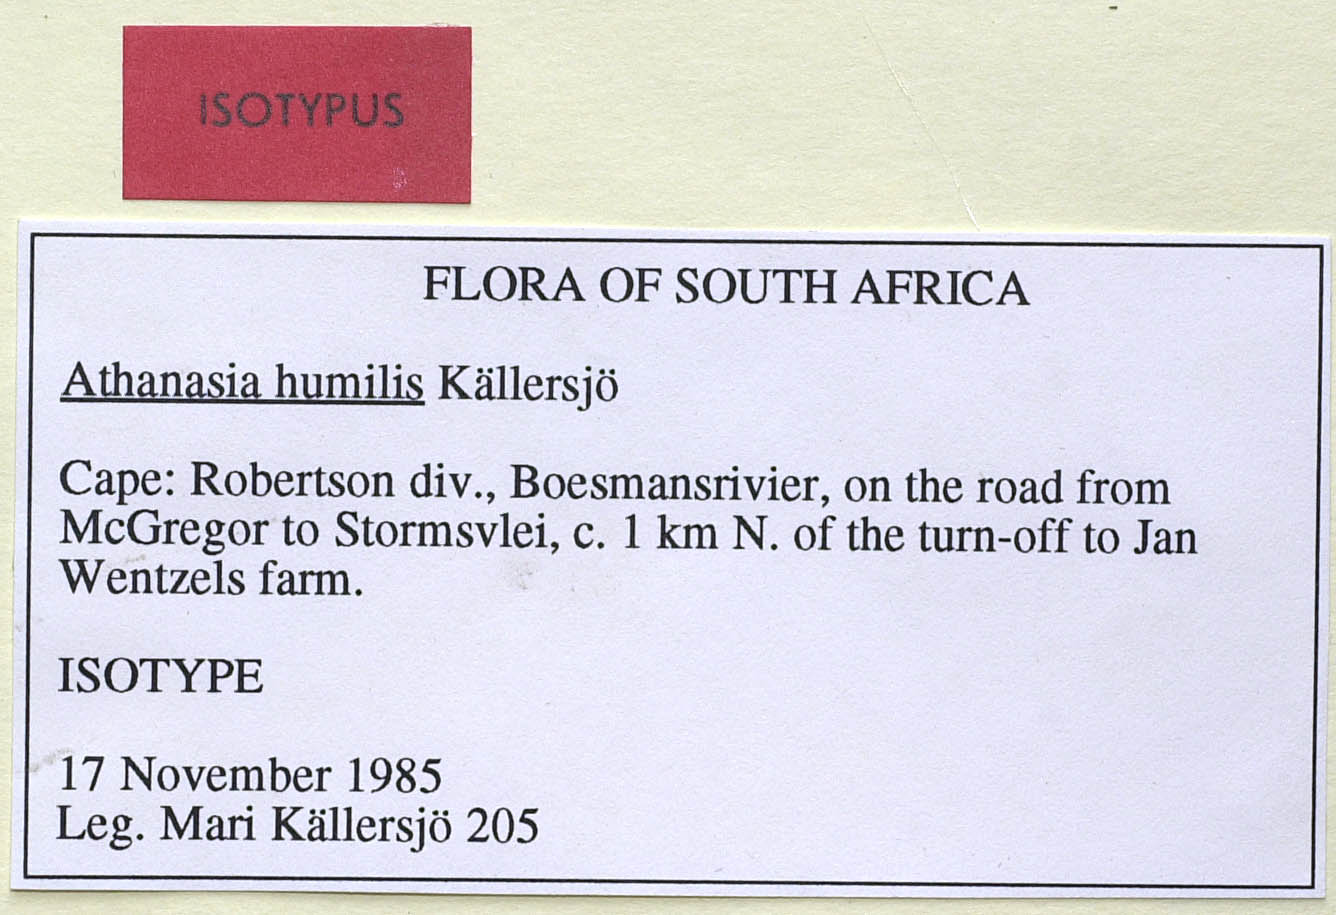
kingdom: Plantae
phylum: Tracheophyta
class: Magnoliopsida
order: Asterales
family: Asteraceae
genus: Athanasia
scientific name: Athanasia humilis
